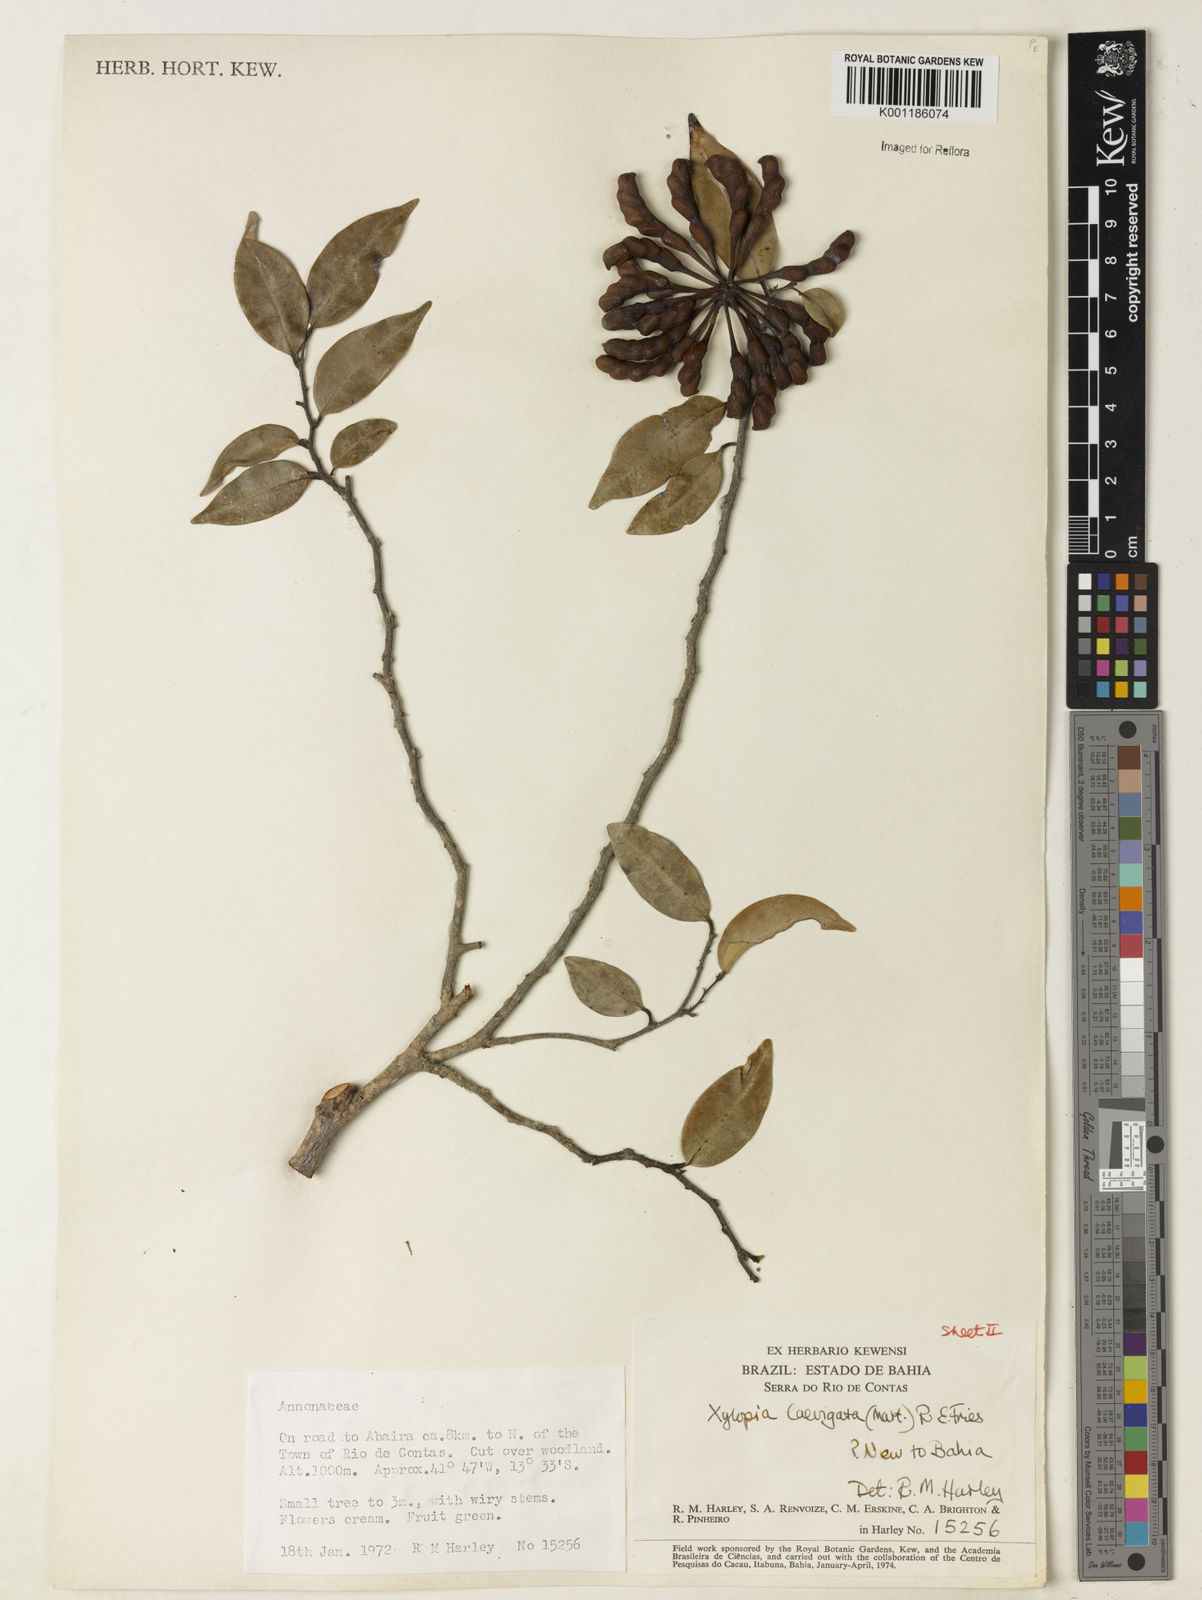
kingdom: Plantae
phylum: Tracheophyta
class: Magnoliopsida
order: Magnoliales
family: Annonaceae
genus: Xylopia
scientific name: Xylopia laevigata
